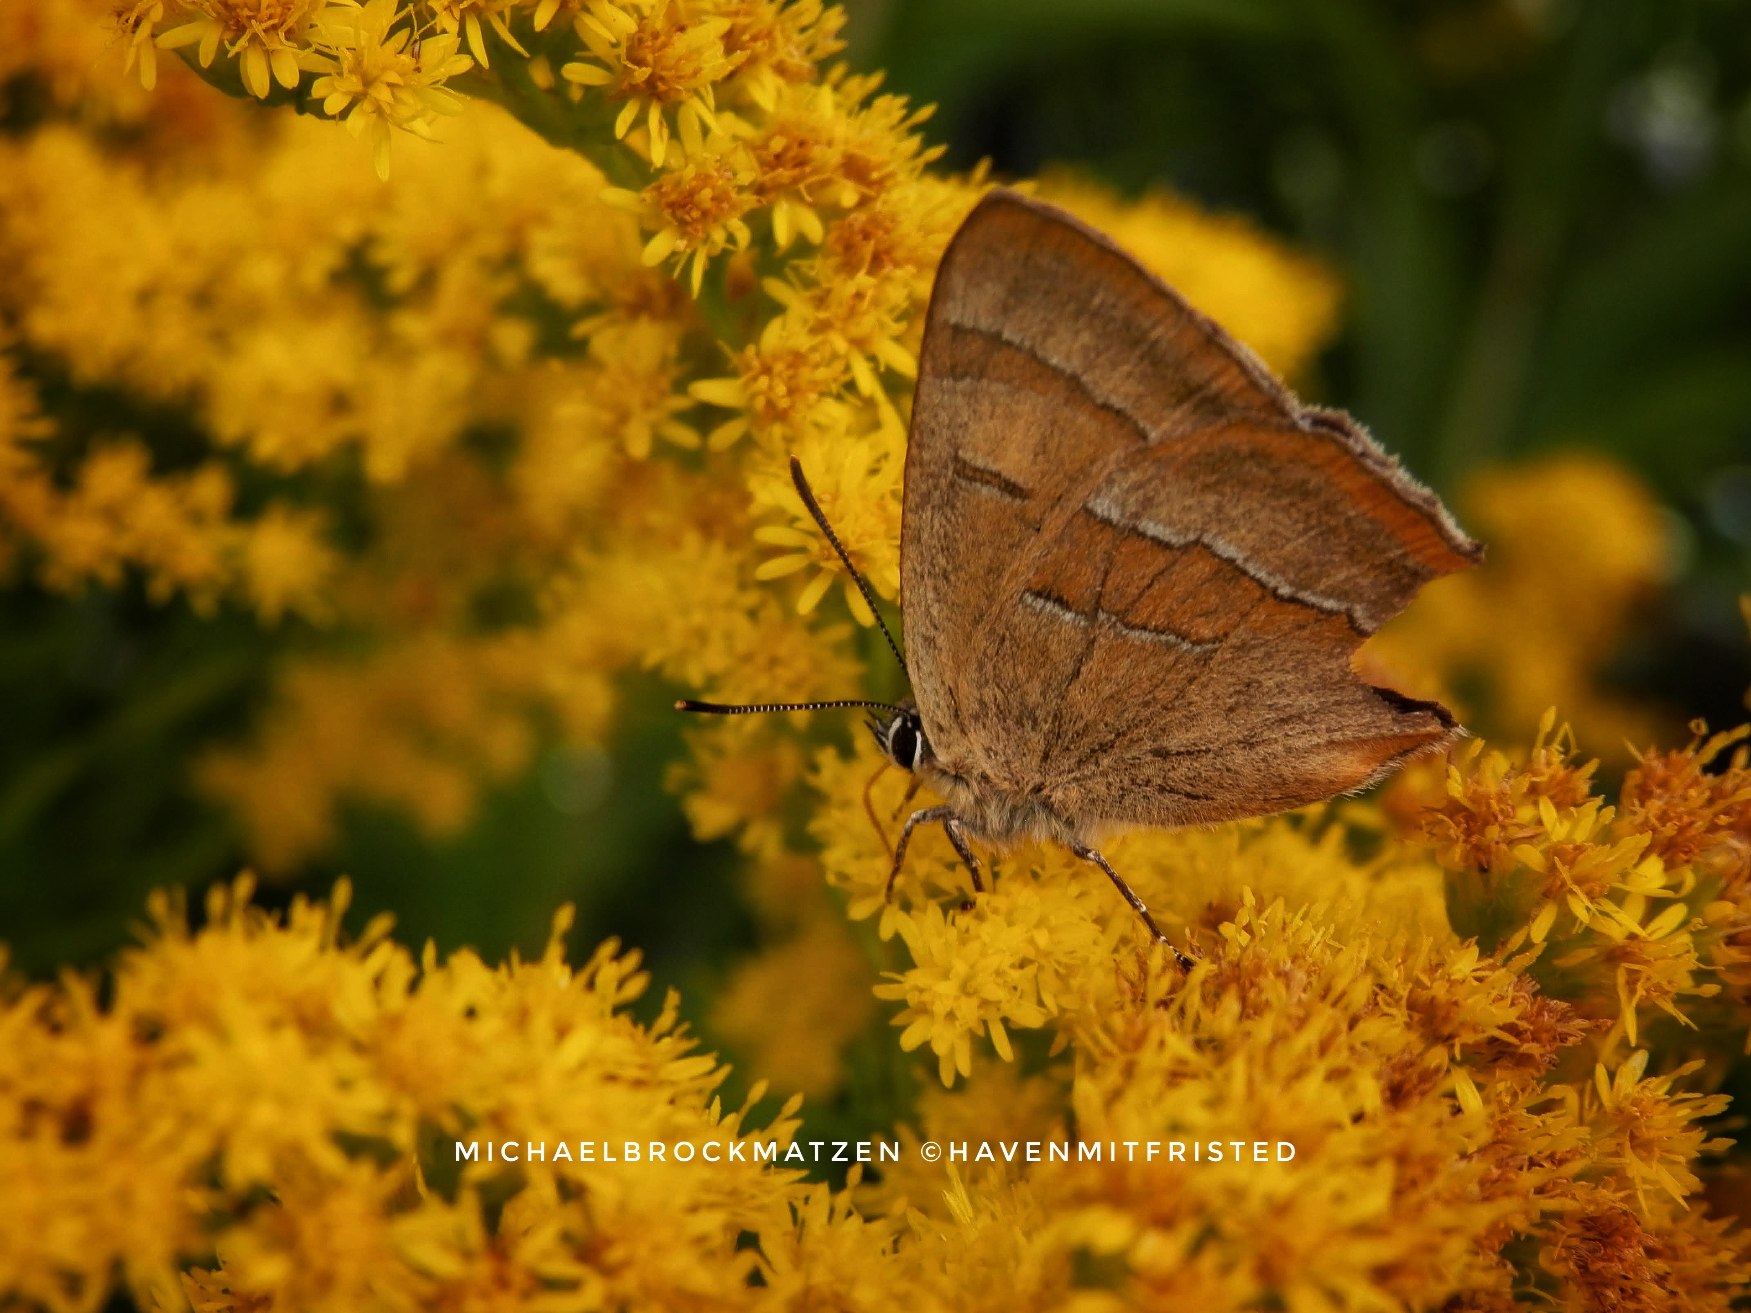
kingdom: Animalia
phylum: Arthropoda
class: Insecta
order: Lepidoptera
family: Lycaenidae
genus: Thecla
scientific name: Thecla betulae
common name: Guldhale
